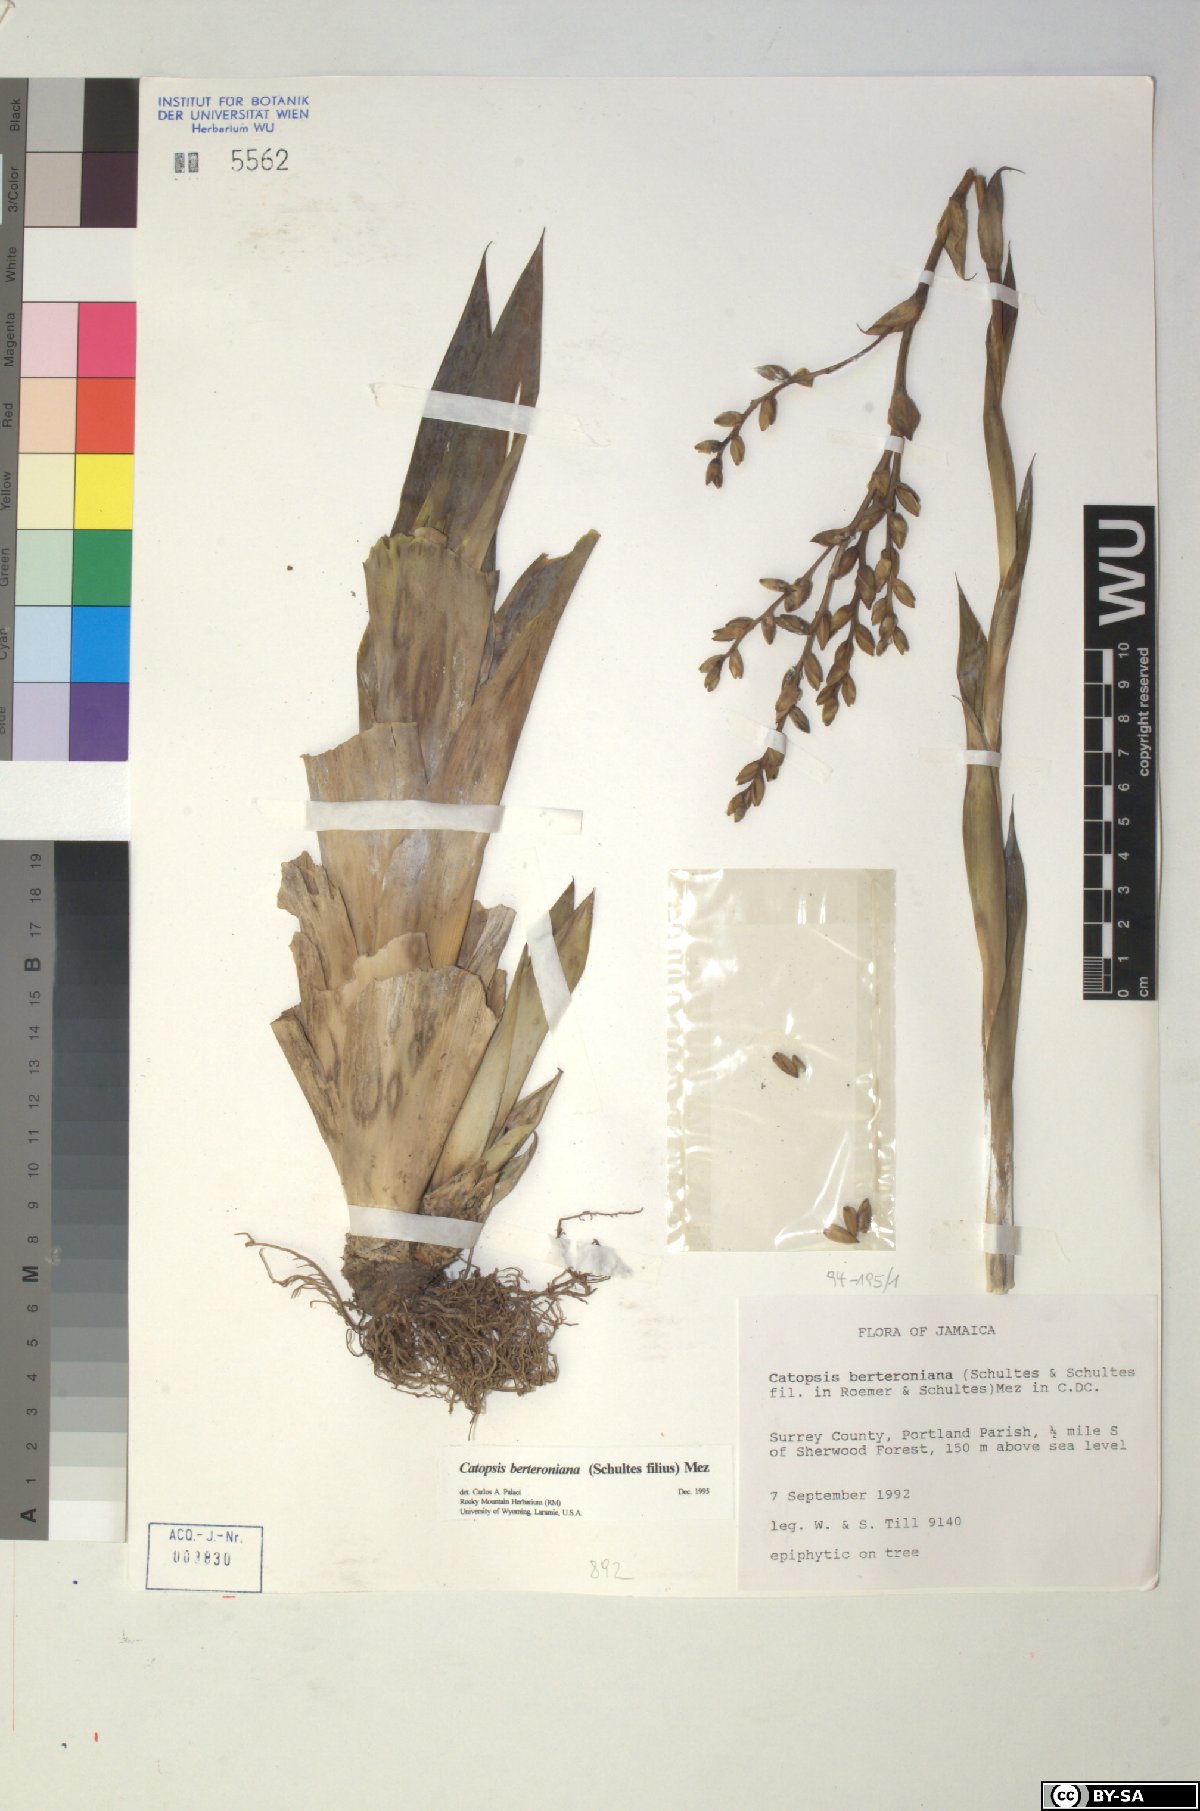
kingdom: Plantae
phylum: Tracheophyta
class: Liliopsida
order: Poales
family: Bromeliaceae
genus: Catopsis
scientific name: Catopsis berteroniana
